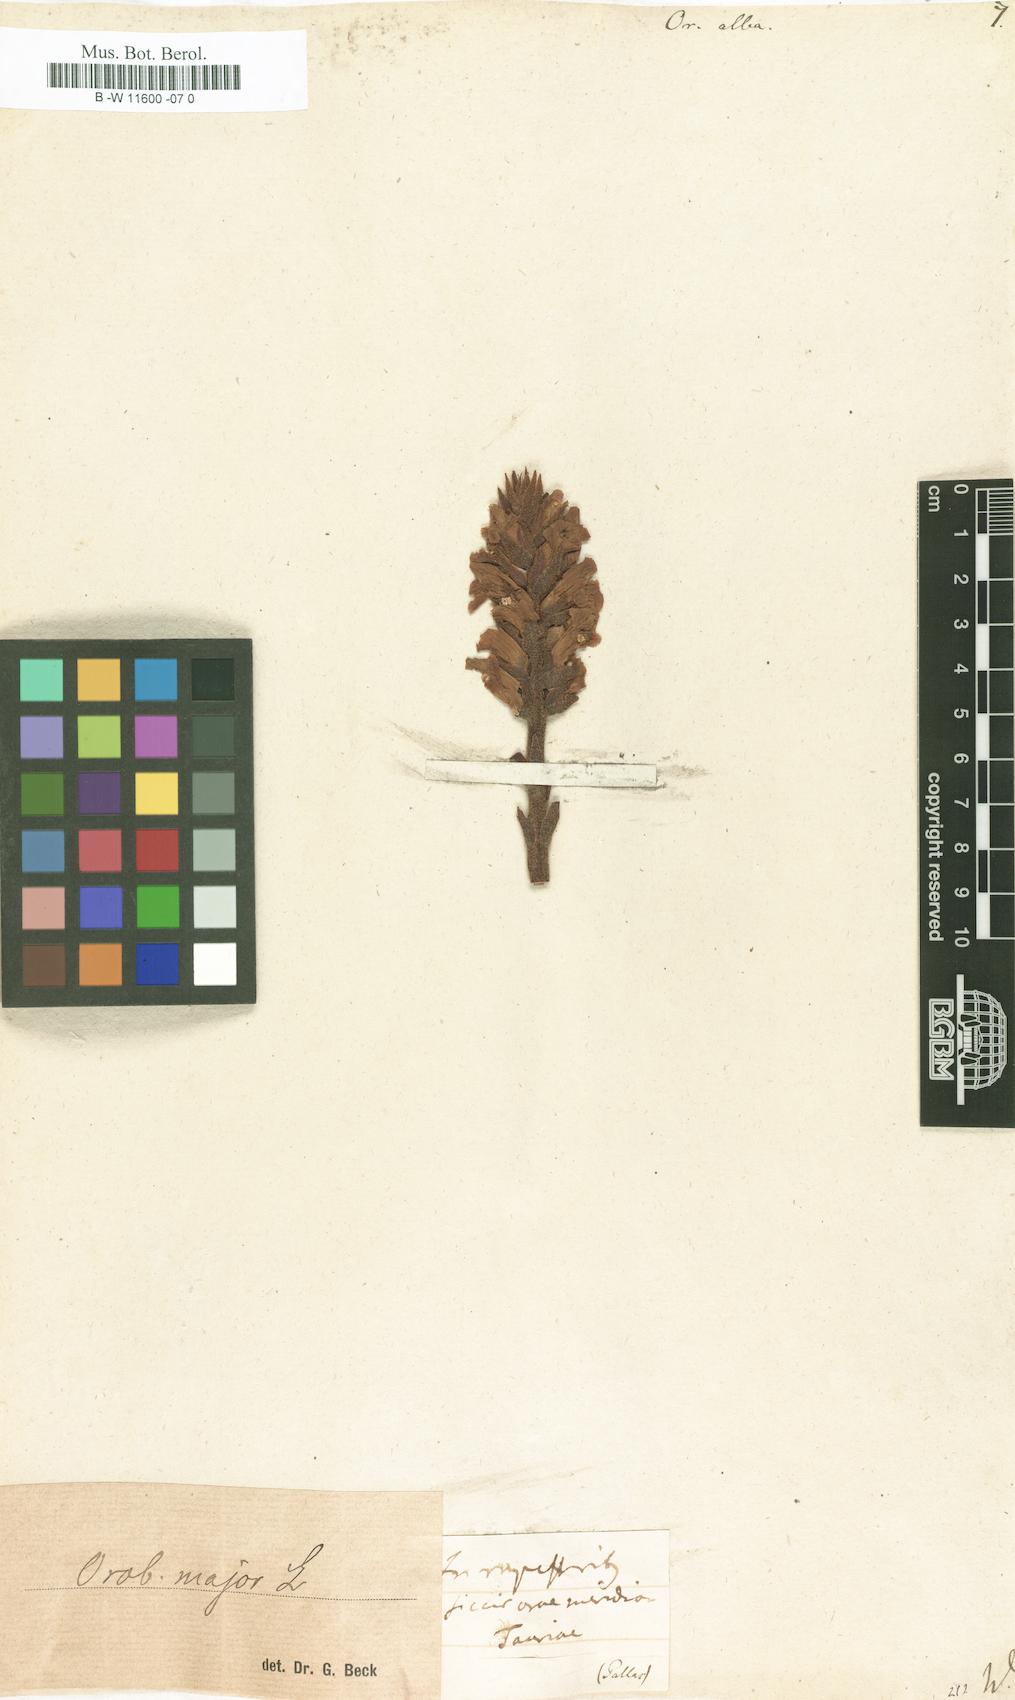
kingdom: Plantae
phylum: Tracheophyta
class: Magnoliopsida
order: Lamiales
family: Orobanchaceae
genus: Orobanche
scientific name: Orobanche alba
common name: Thyme broomrape
